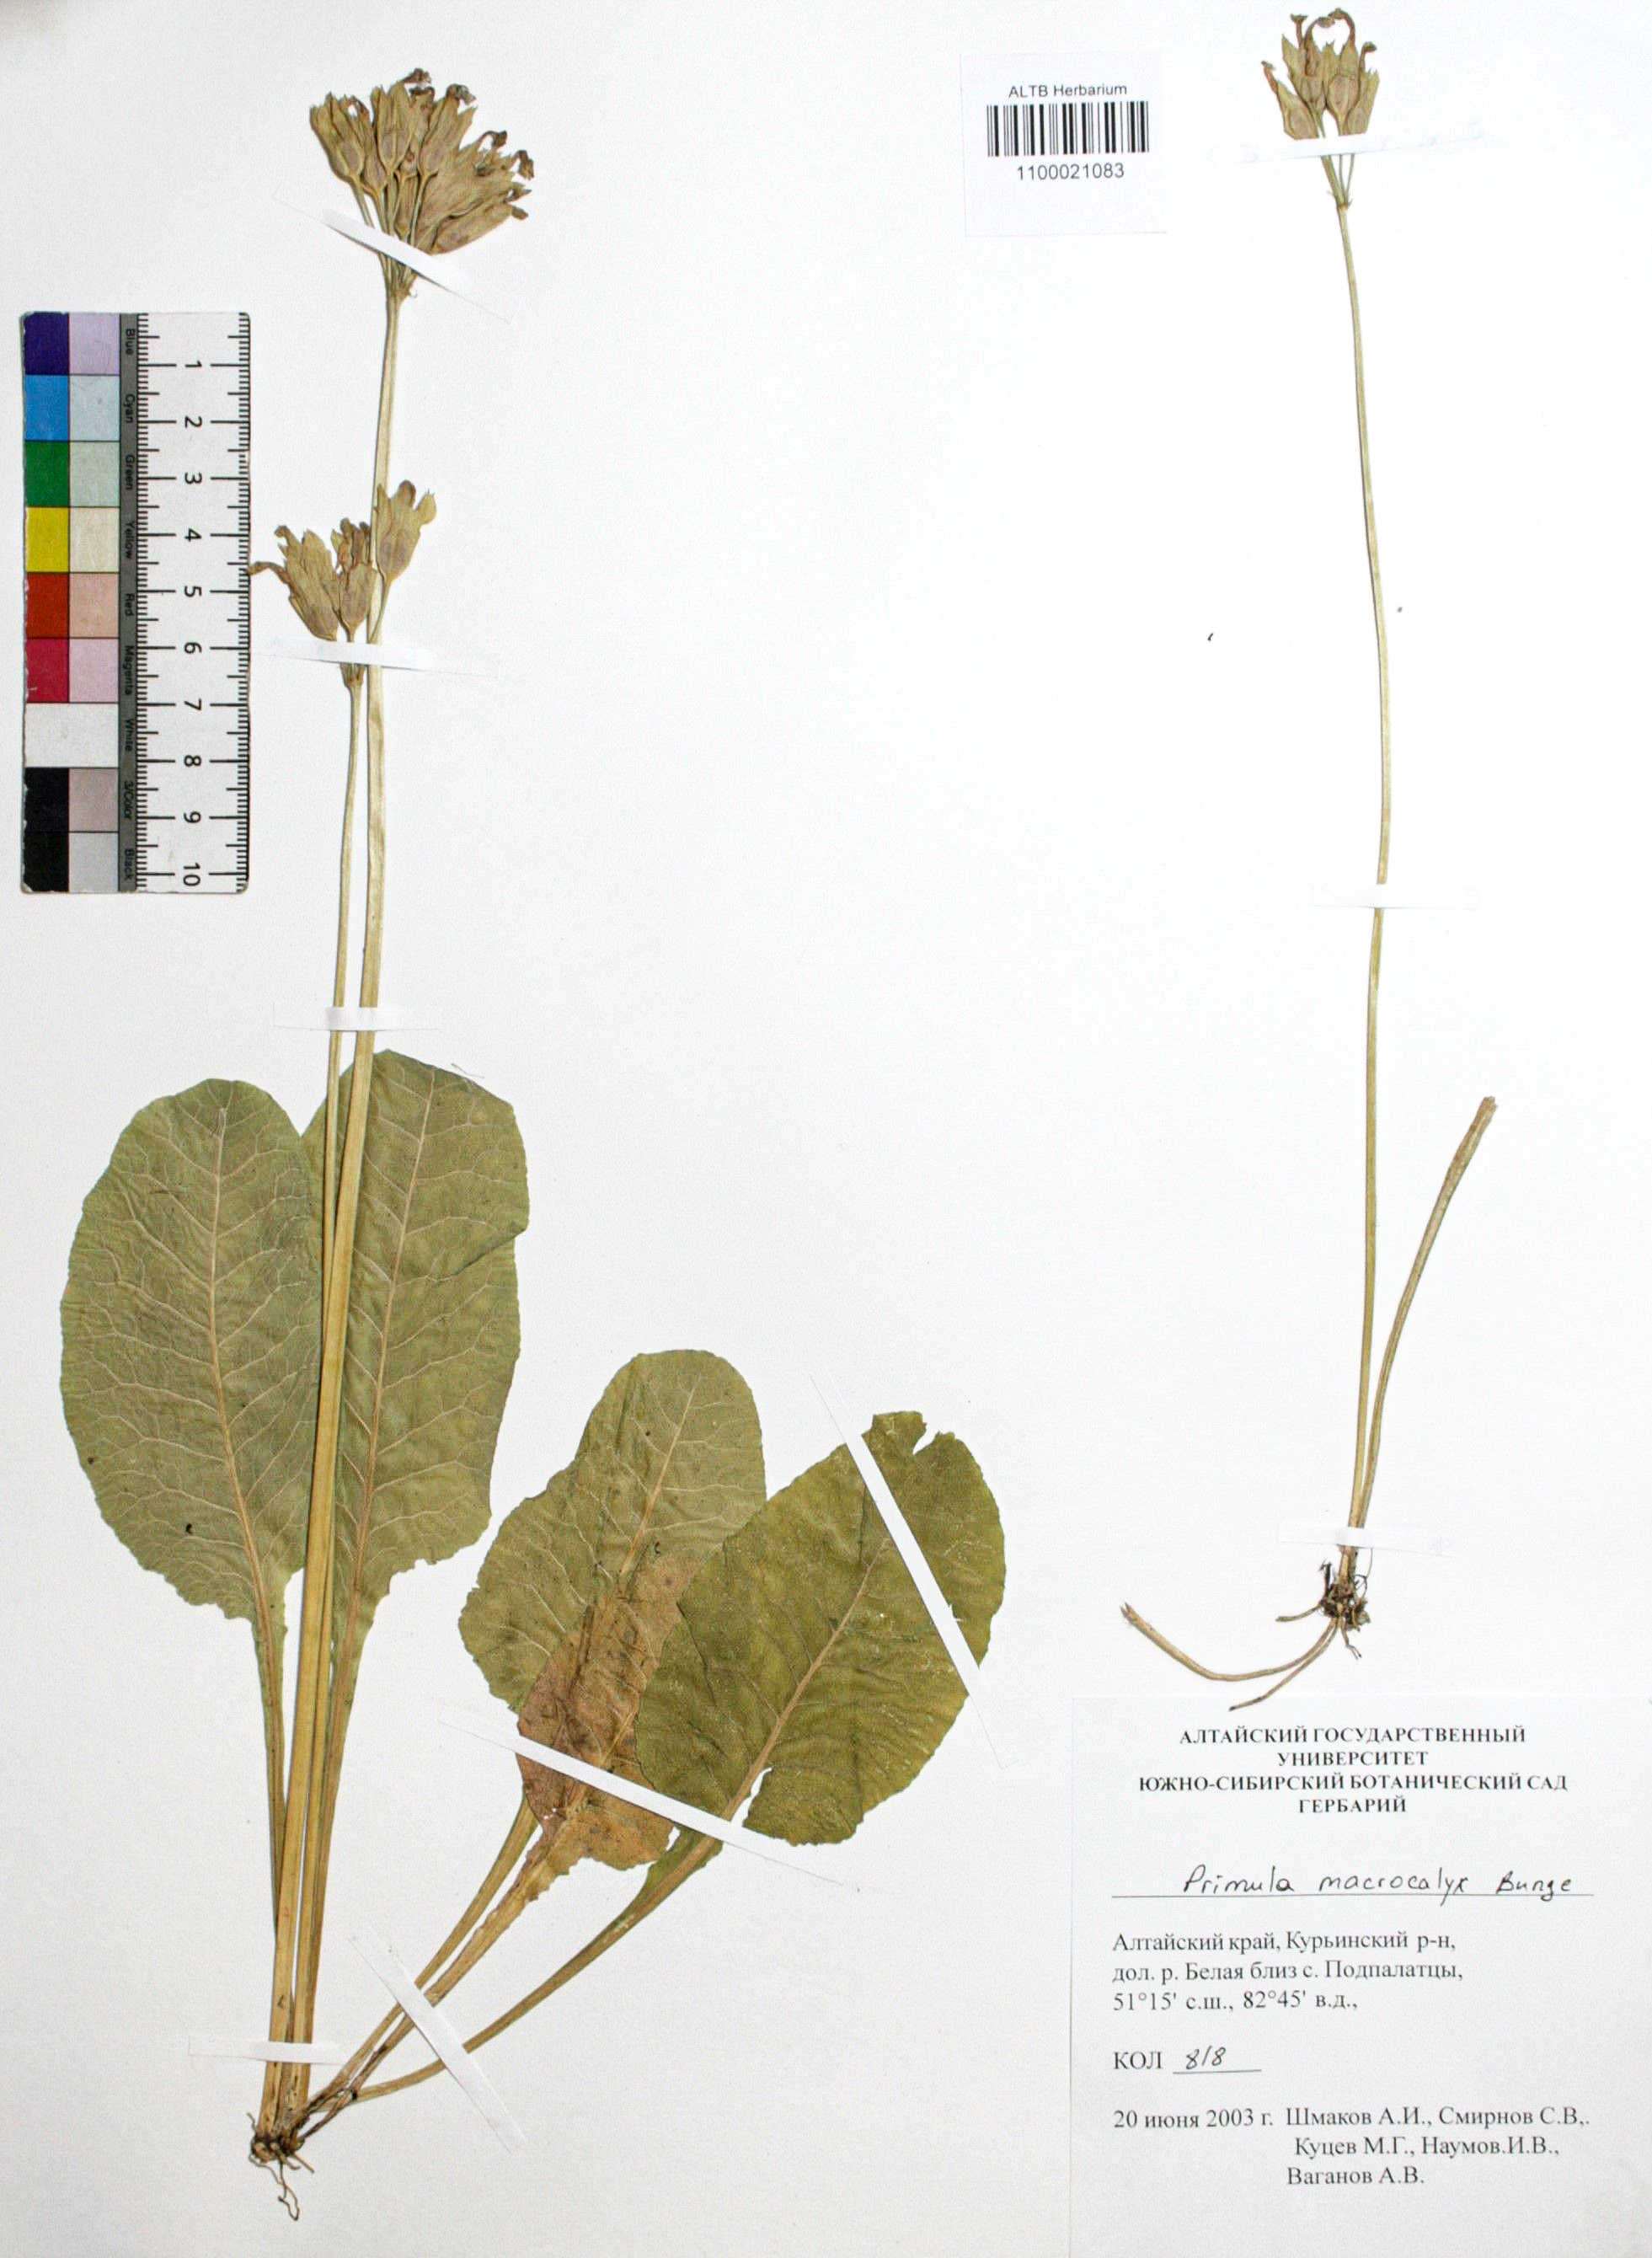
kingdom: Plantae
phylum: Tracheophyta
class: Magnoliopsida
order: Ericales
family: Primulaceae
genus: Primula
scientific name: Primula veris
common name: Cowslip
